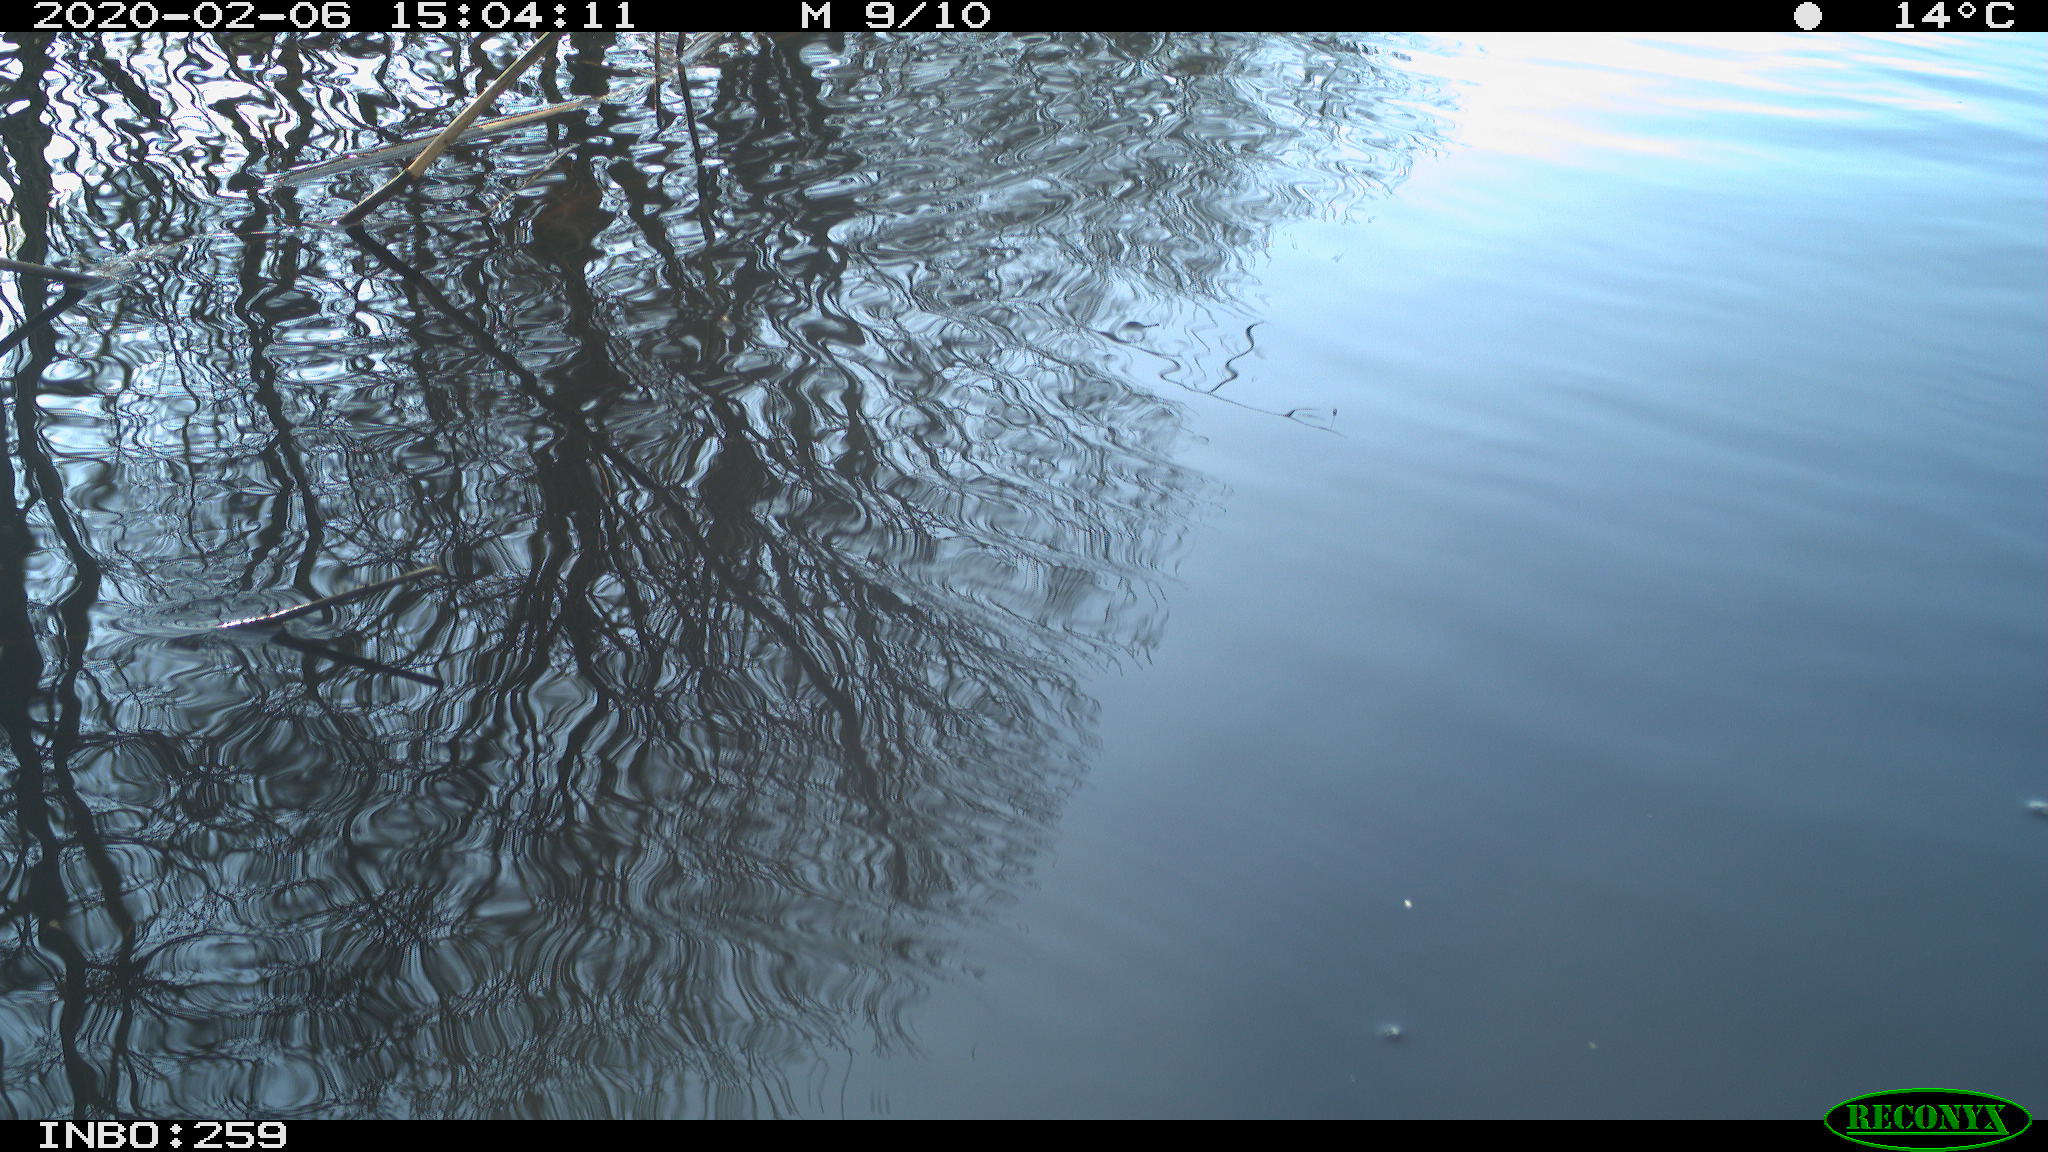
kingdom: Animalia
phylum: Chordata
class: Aves
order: Gruiformes
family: Rallidae
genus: Gallinula
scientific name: Gallinula chloropus
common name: Common moorhen
